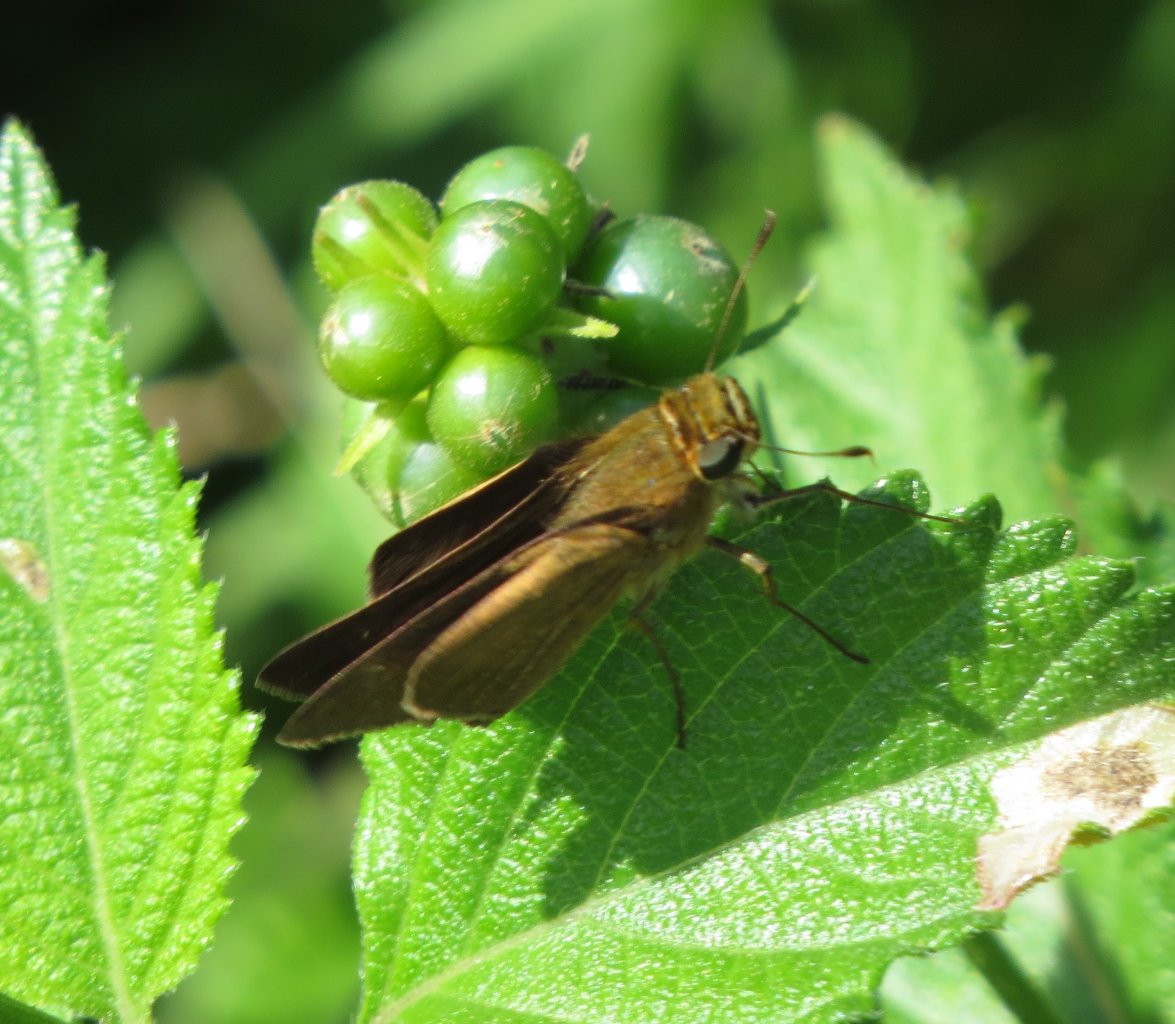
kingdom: Animalia
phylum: Arthropoda
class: Insecta
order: Lepidoptera
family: Hesperiidae
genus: Panoquina
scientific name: Panoquina ocola
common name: Ocola Skipper
